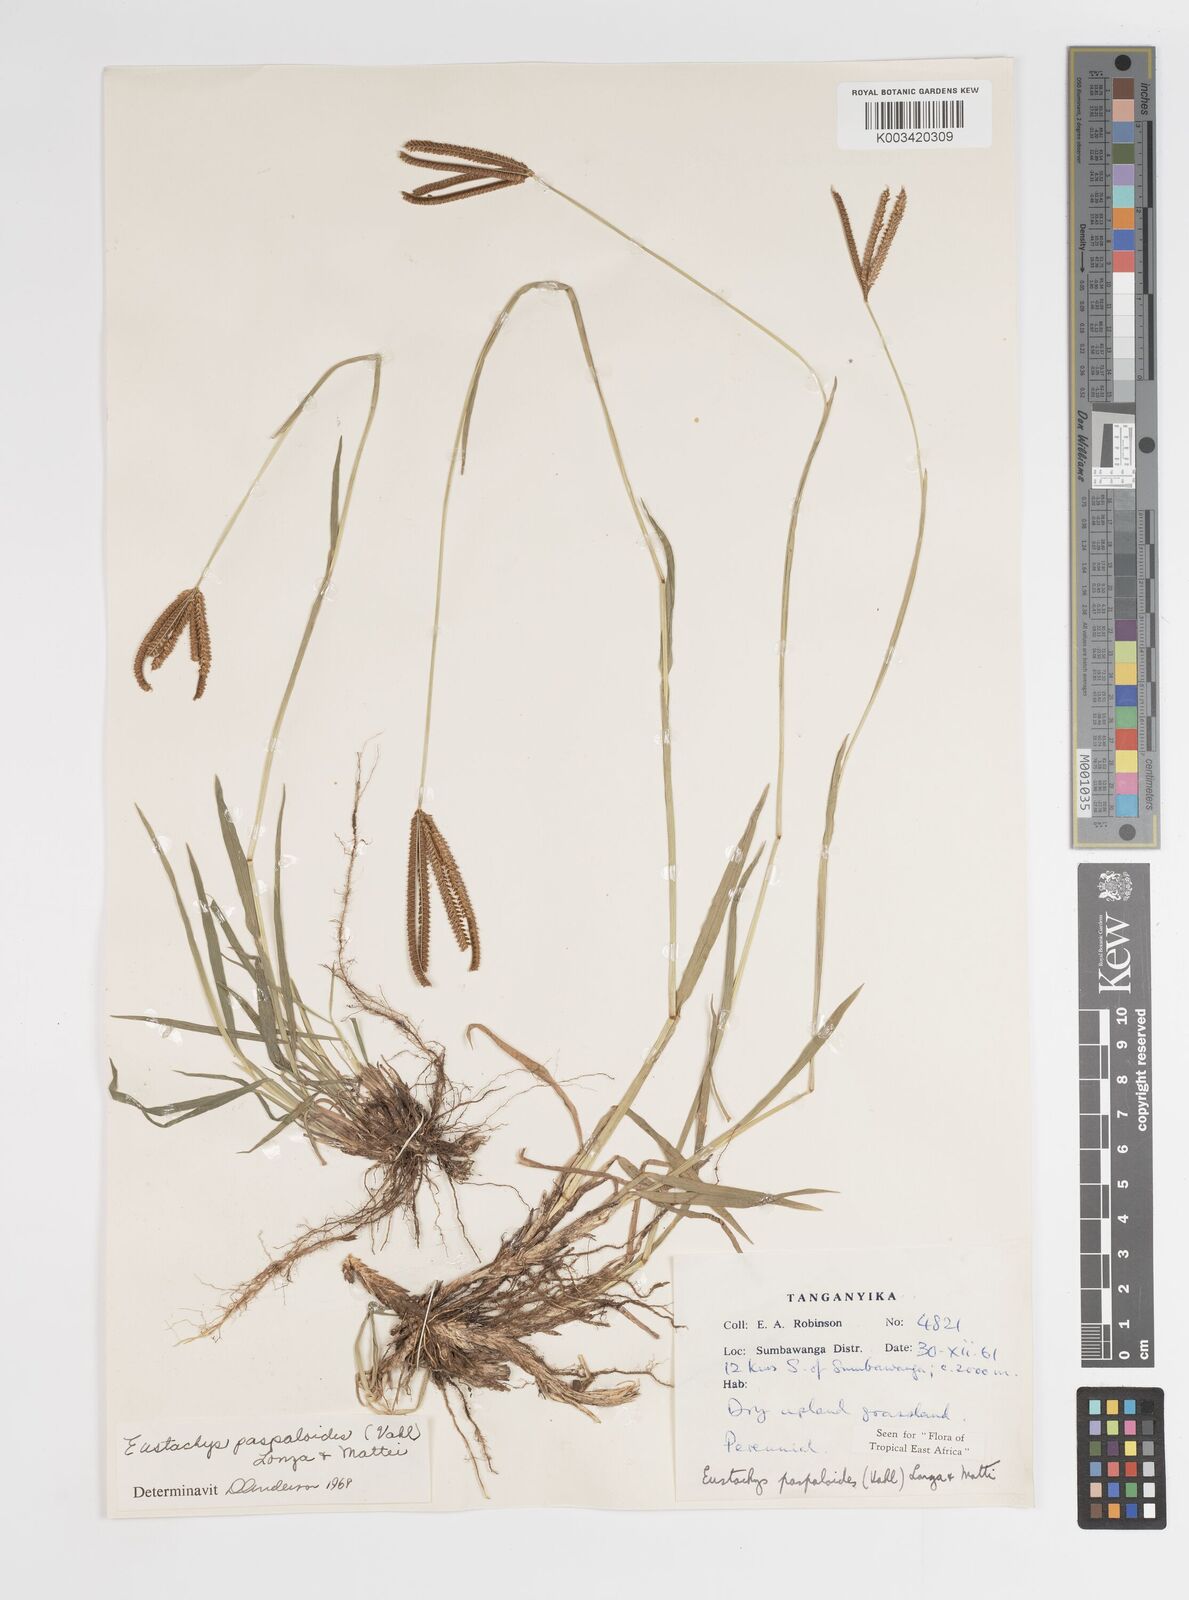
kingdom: Plantae
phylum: Tracheophyta
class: Liliopsida
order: Poales
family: Poaceae
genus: Eustachys
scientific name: Eustachys
